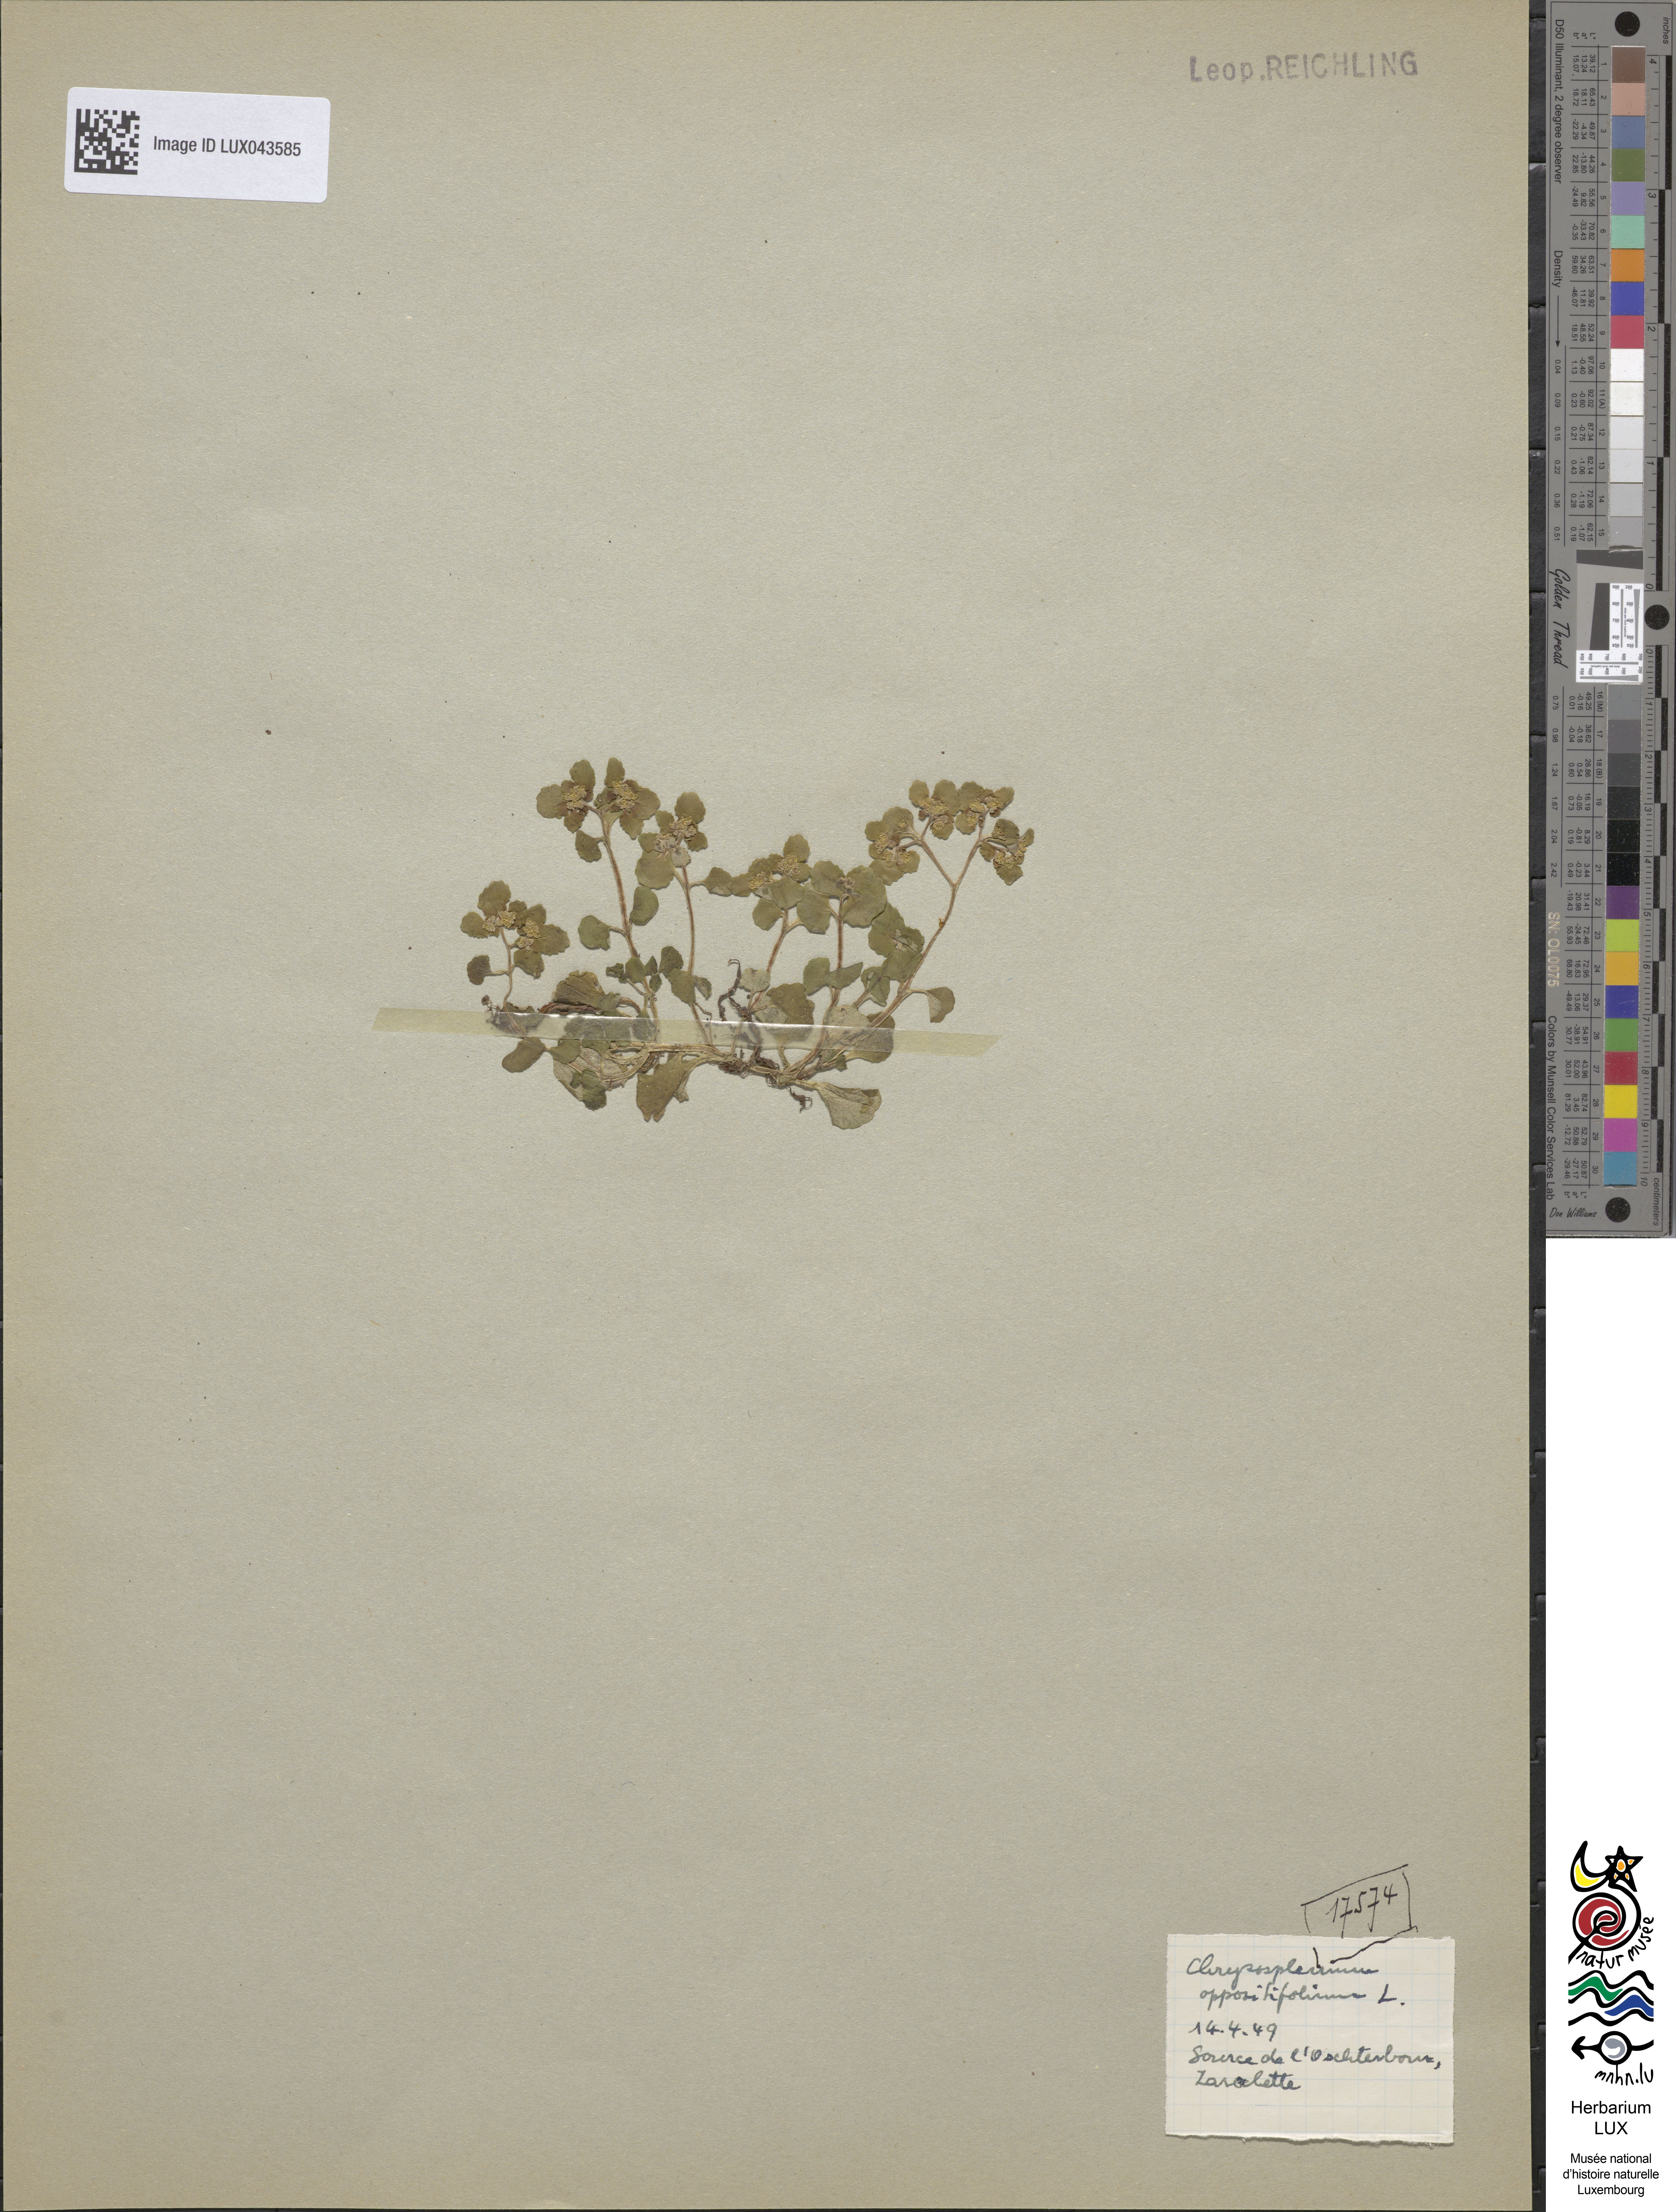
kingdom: Plantae
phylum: Tracheophyta
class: Magnoliopsida
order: Saxifragales
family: Saxifragaceae
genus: Chrysosplenium
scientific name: Chrysosplenium oppositifolium
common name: Opposite-leaved golden-saxifrage
